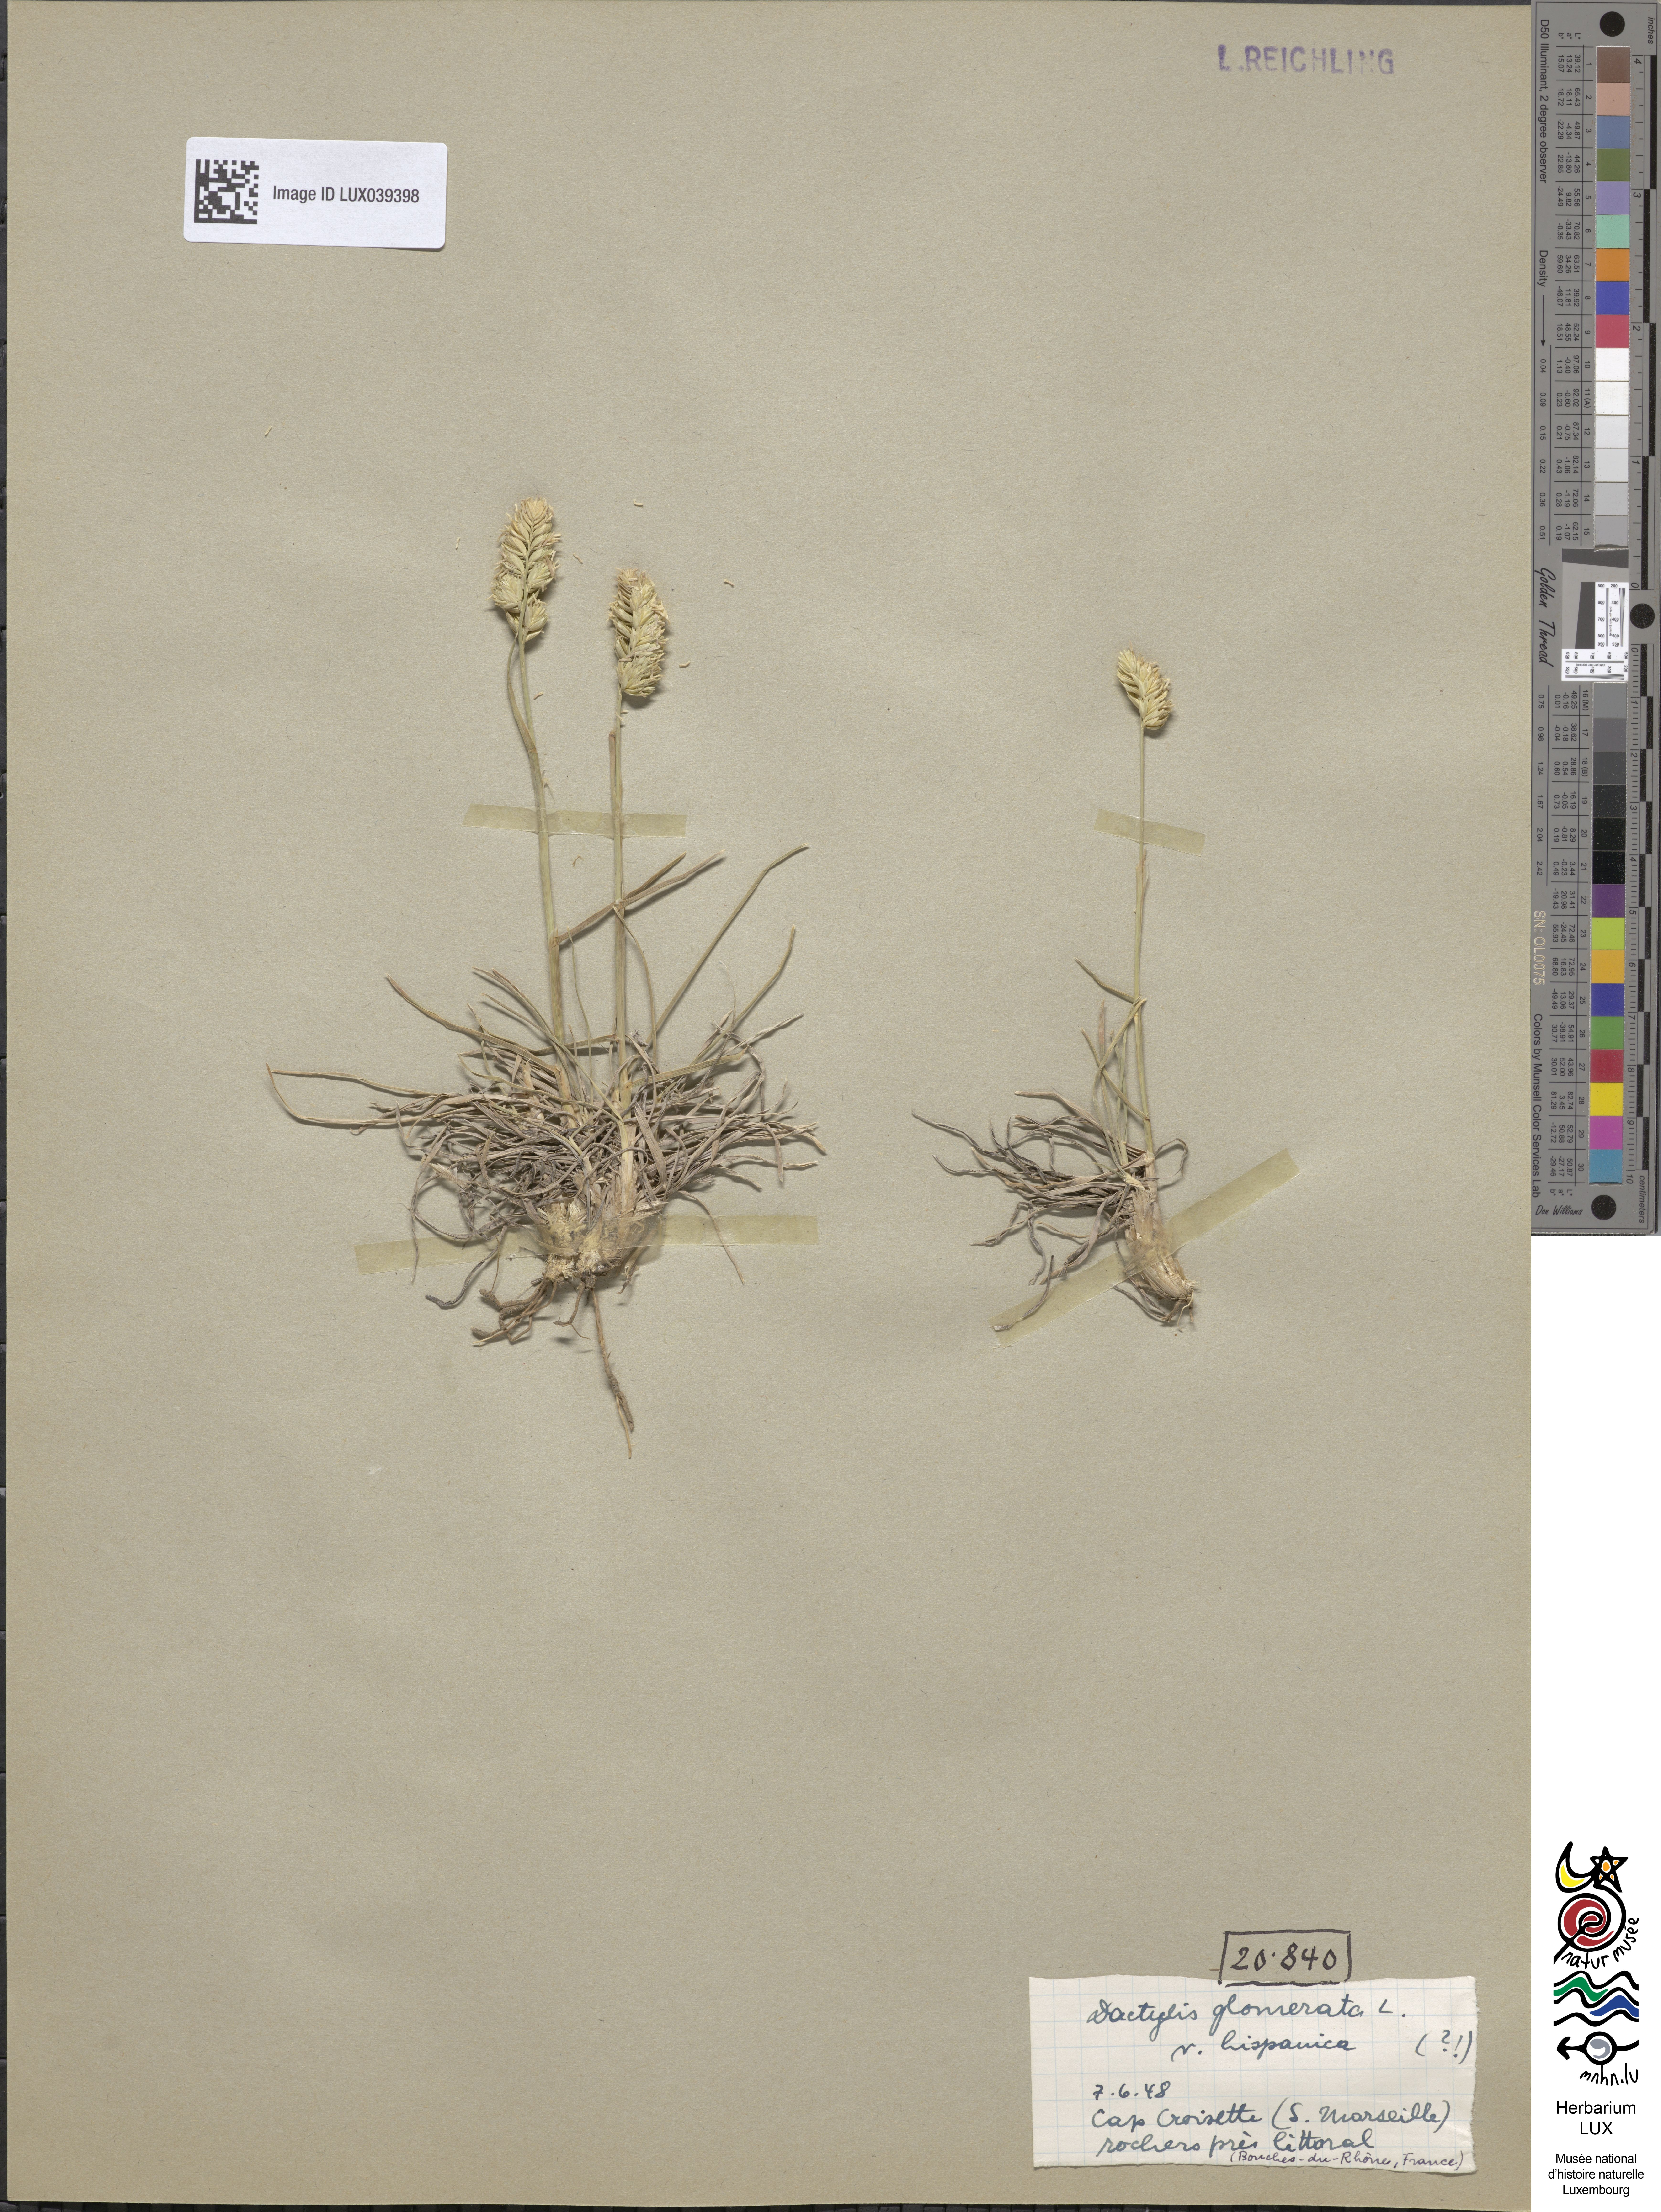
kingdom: Plantae
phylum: Tracheophyta
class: Liliopsida
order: Poales
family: Poaceae
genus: Dactylis
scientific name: Dactylis glomerata
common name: Orchardgrass
